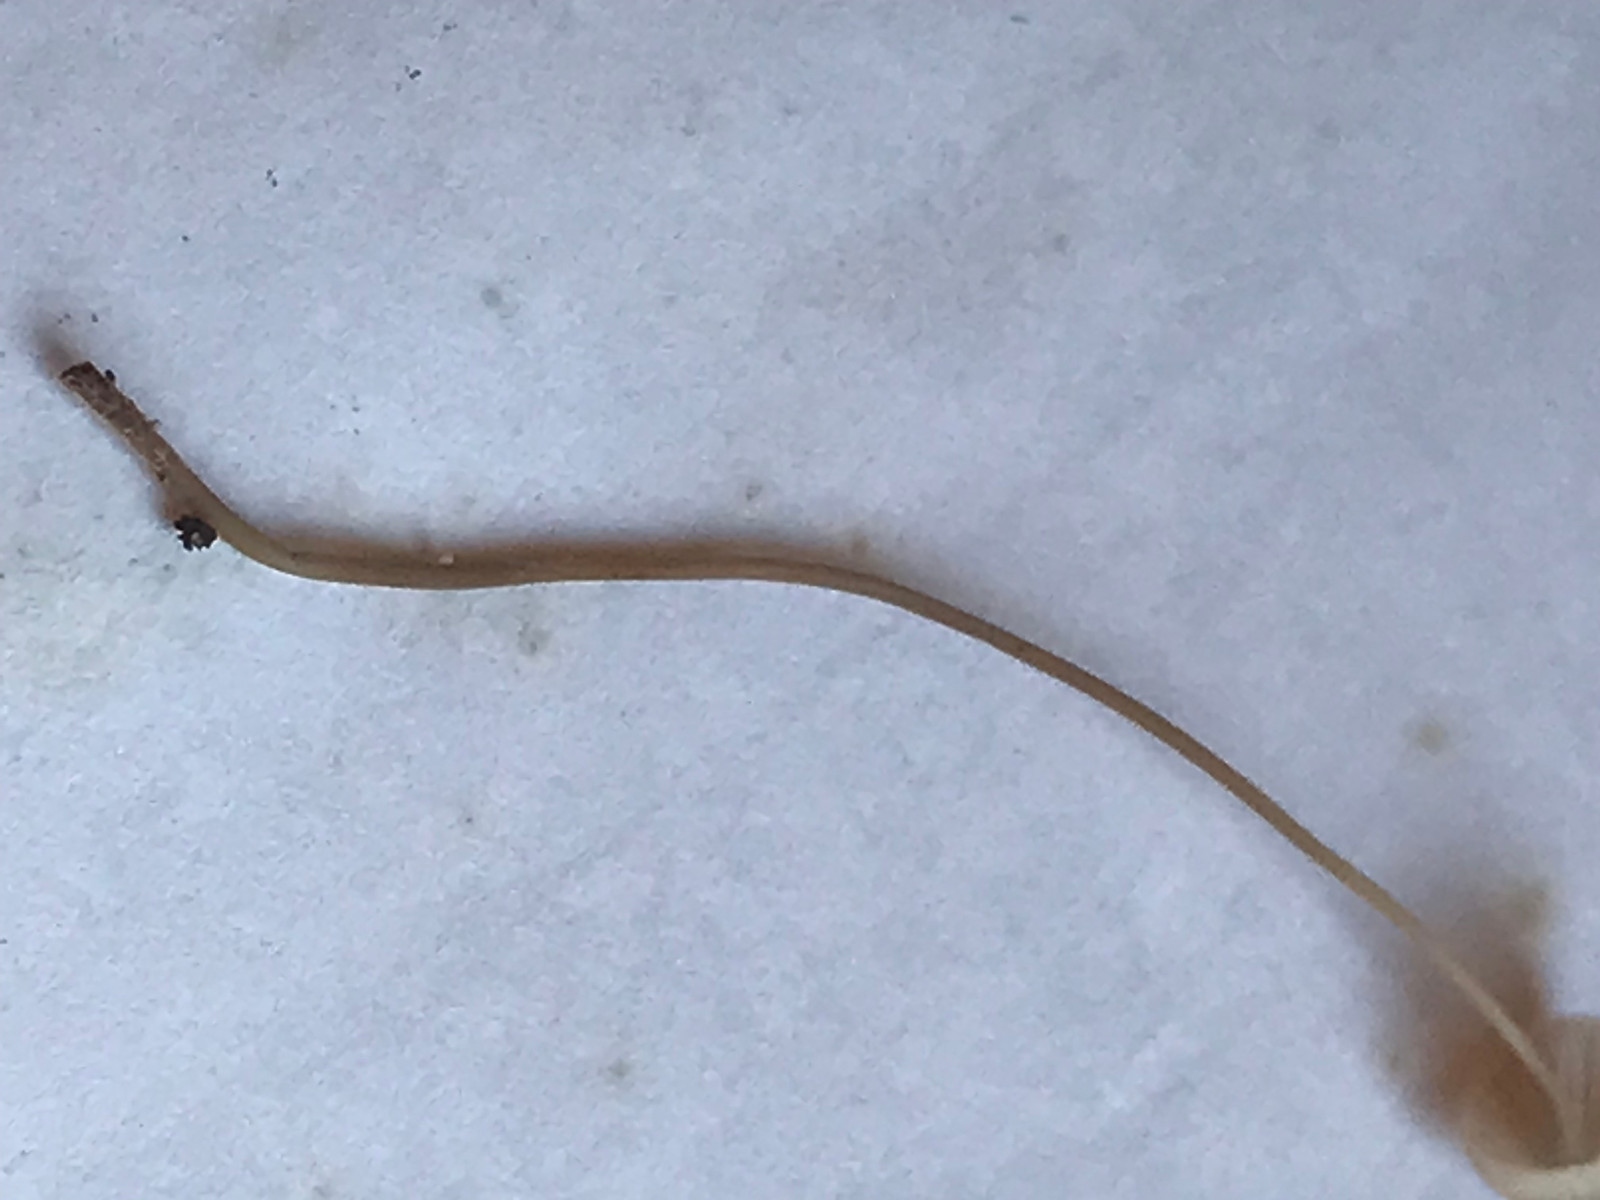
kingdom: Fungi
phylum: Basidiomycota
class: Agaricomycetes
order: Agaricales
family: Mycenaceae
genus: Mycena
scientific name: Mycena
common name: huesvamp
